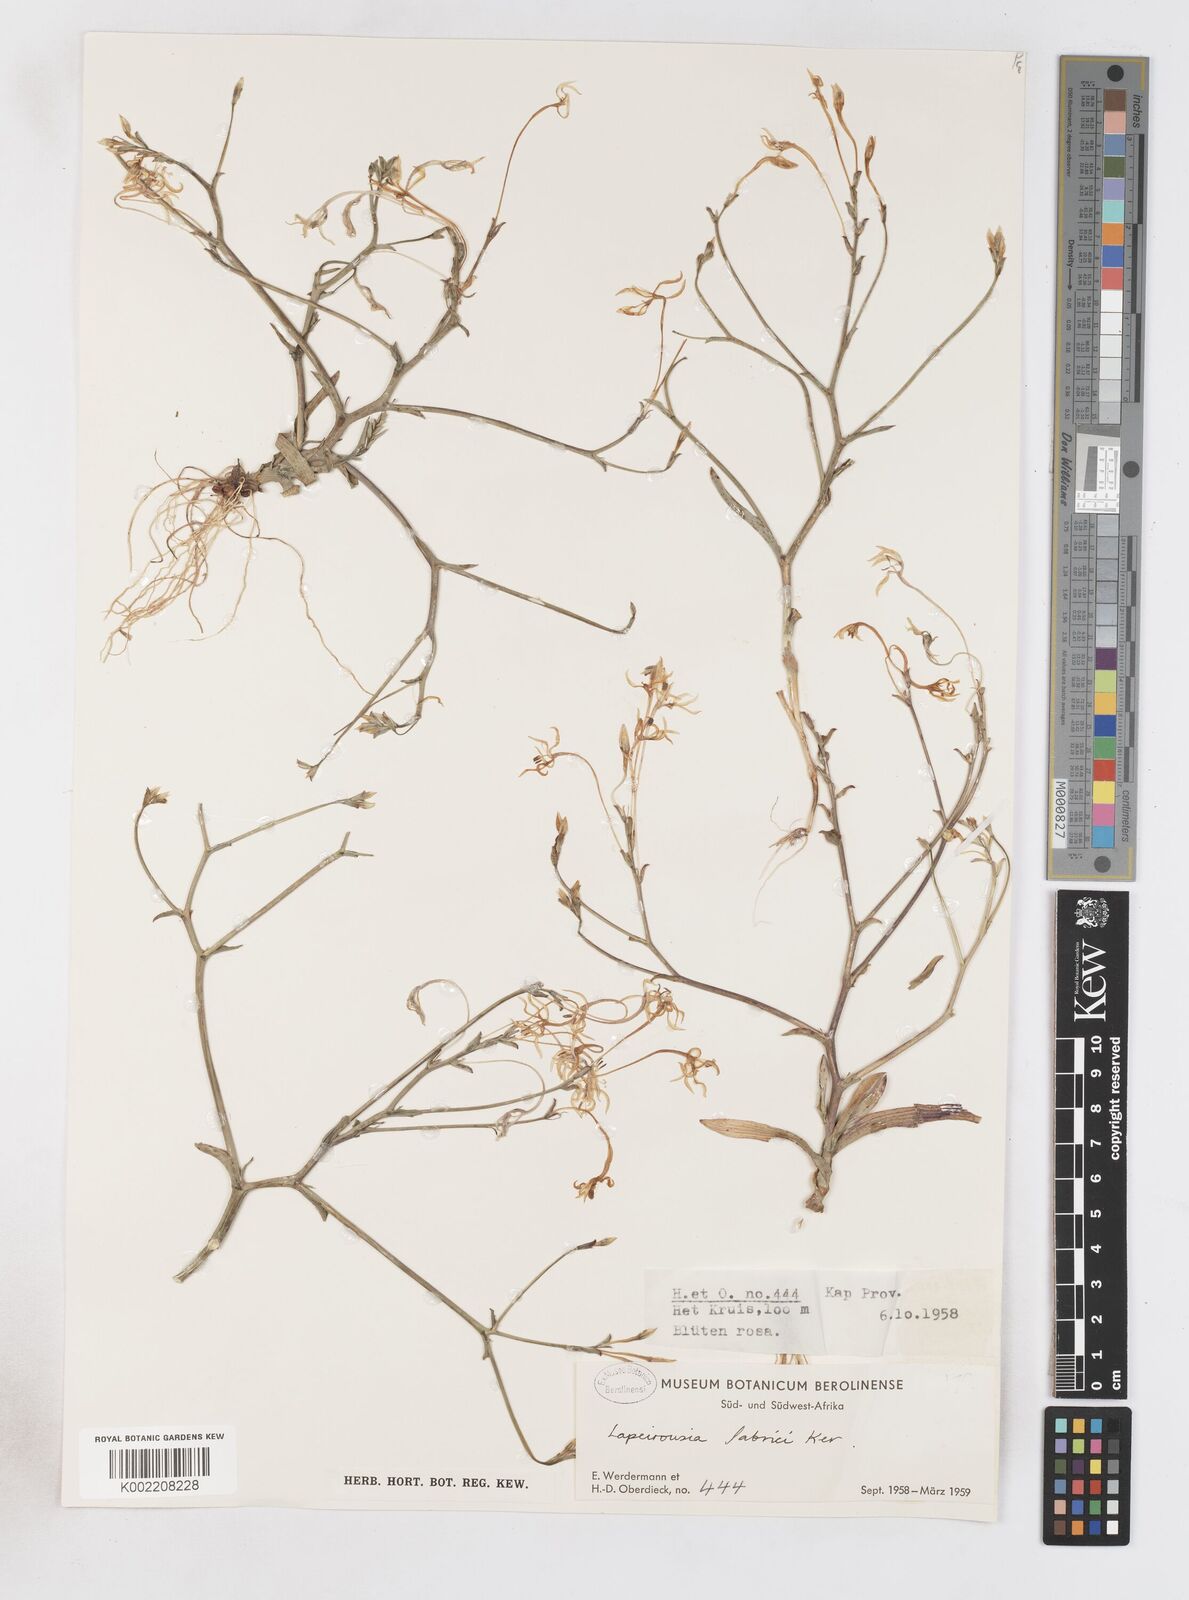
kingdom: Plantae
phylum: Tracheophyta
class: Liliopsida
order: Asparagales
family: Iridaceae
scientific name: Iridaceae
